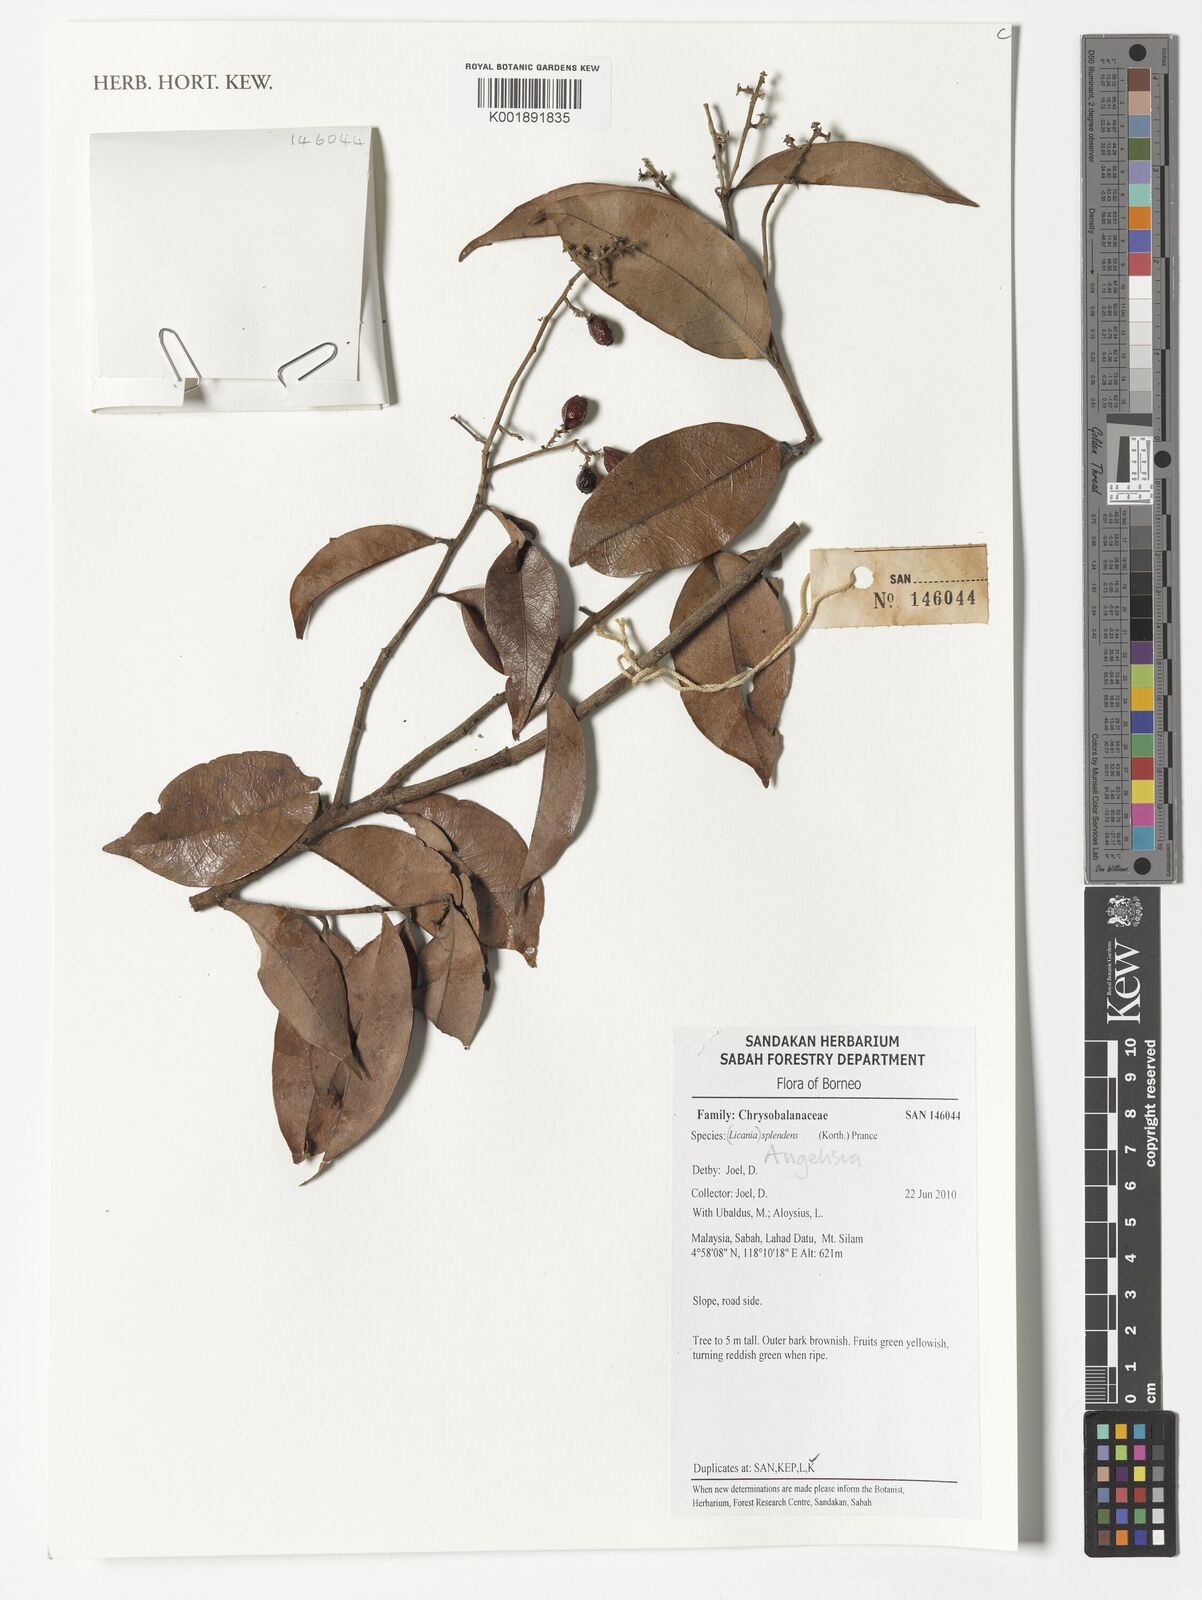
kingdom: Plantae
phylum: Tracheophyta
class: Magnoliopsida
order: Malpighiales
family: Chrysobalanaceae
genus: Angelesia
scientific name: Angelesia splendens
